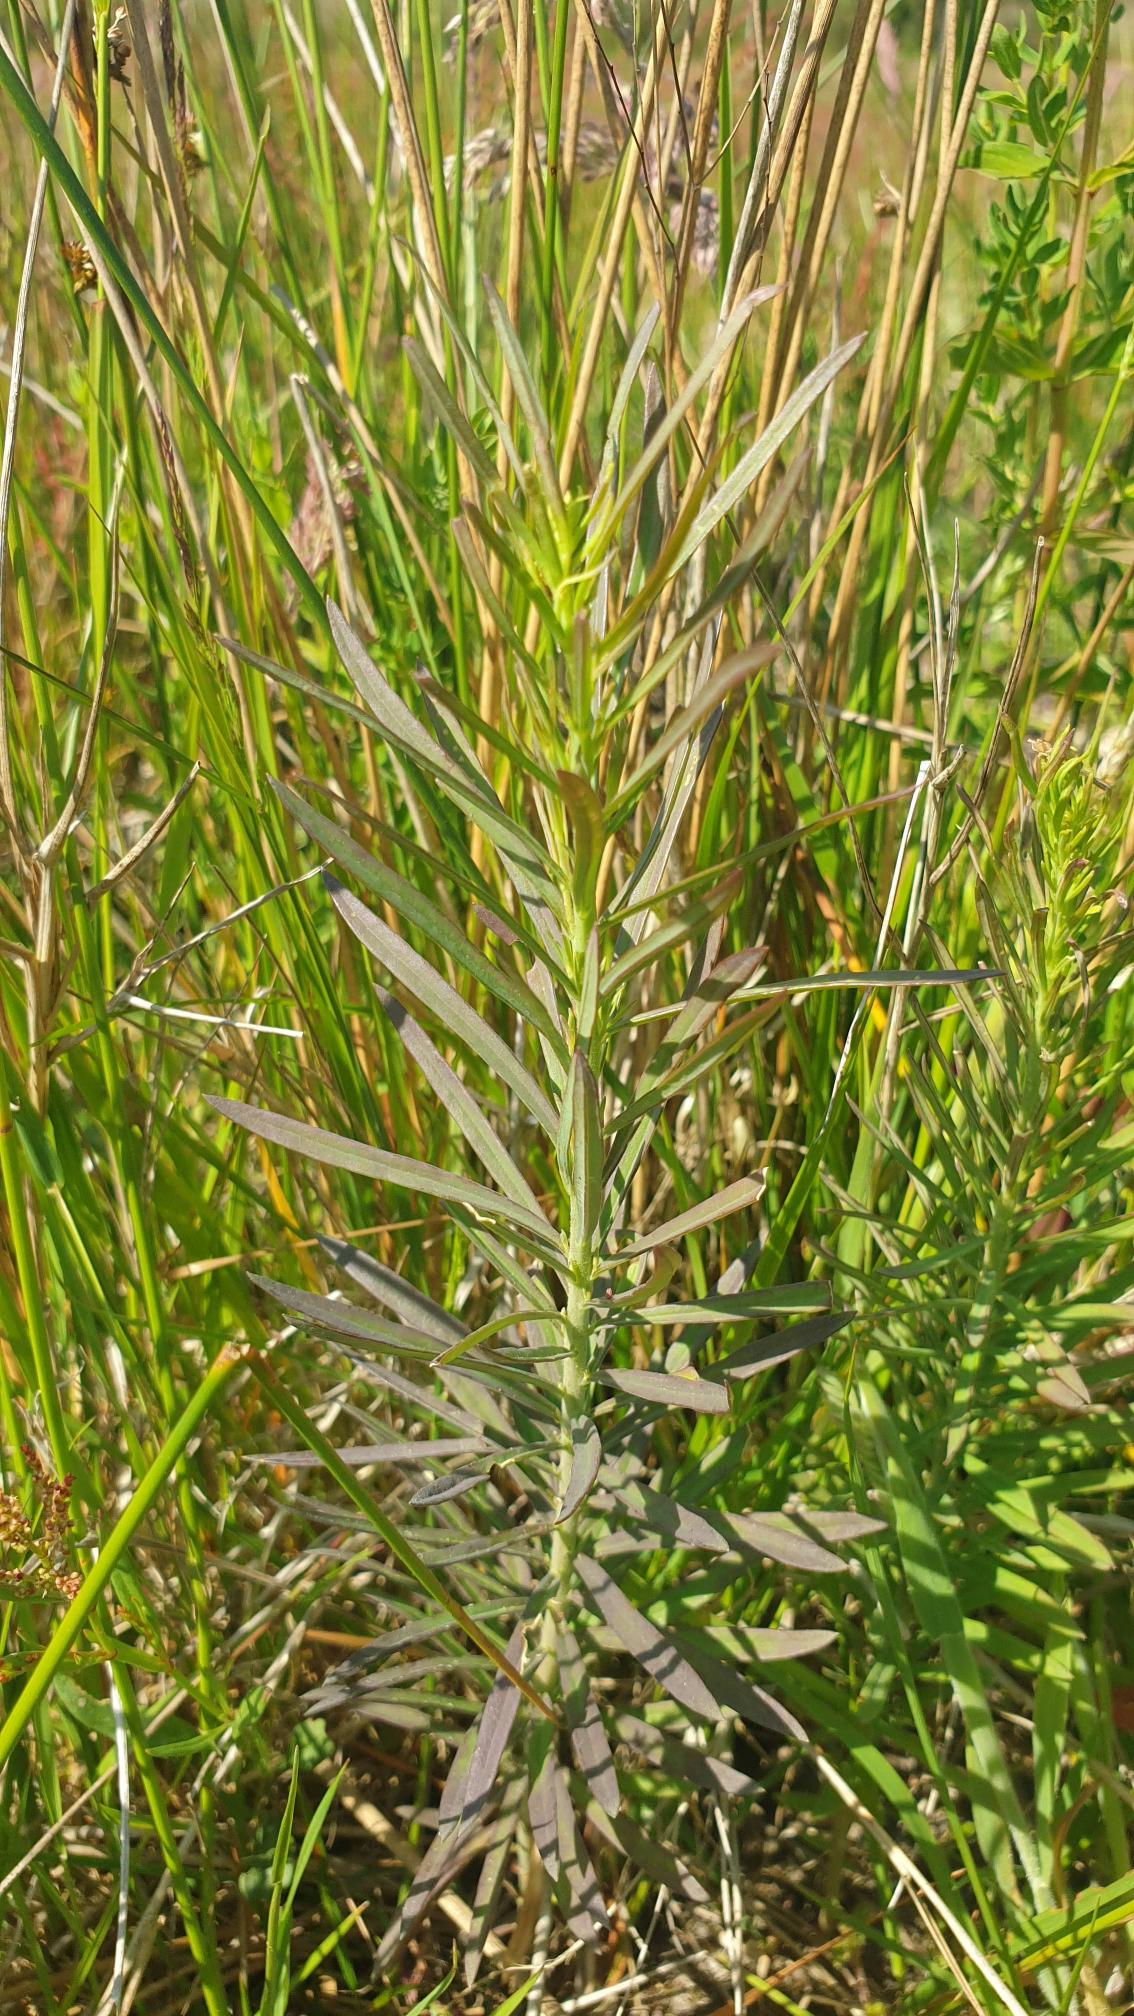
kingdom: Plantae
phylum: Tracheophyta
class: Magnoliopsida
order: Lamiales
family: Plantaginaceae
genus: Linaria
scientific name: Linaria vulgaris
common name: Almindelig torskemund
